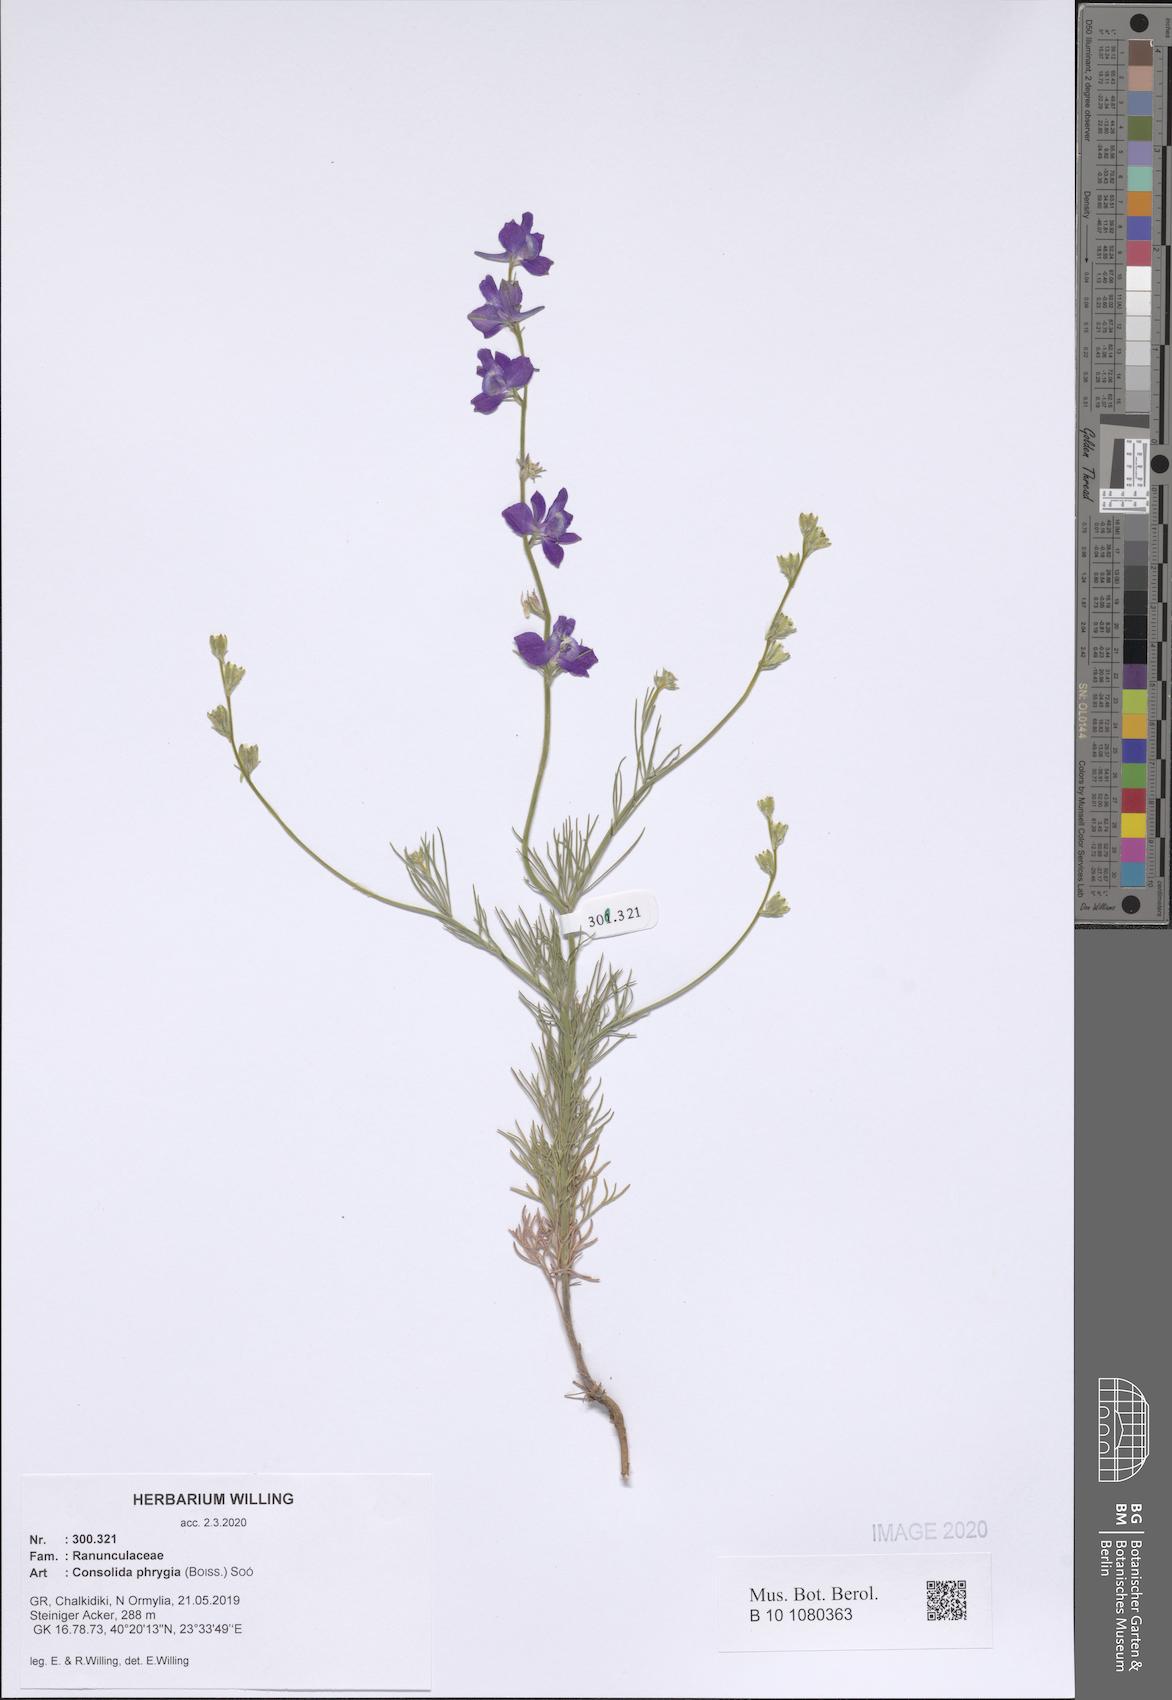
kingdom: Plantae
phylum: Tracheophyta
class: Magnoliopsida
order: Ranunculales
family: Ranunculaceae
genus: Delphinium
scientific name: Delphinium phrygium
